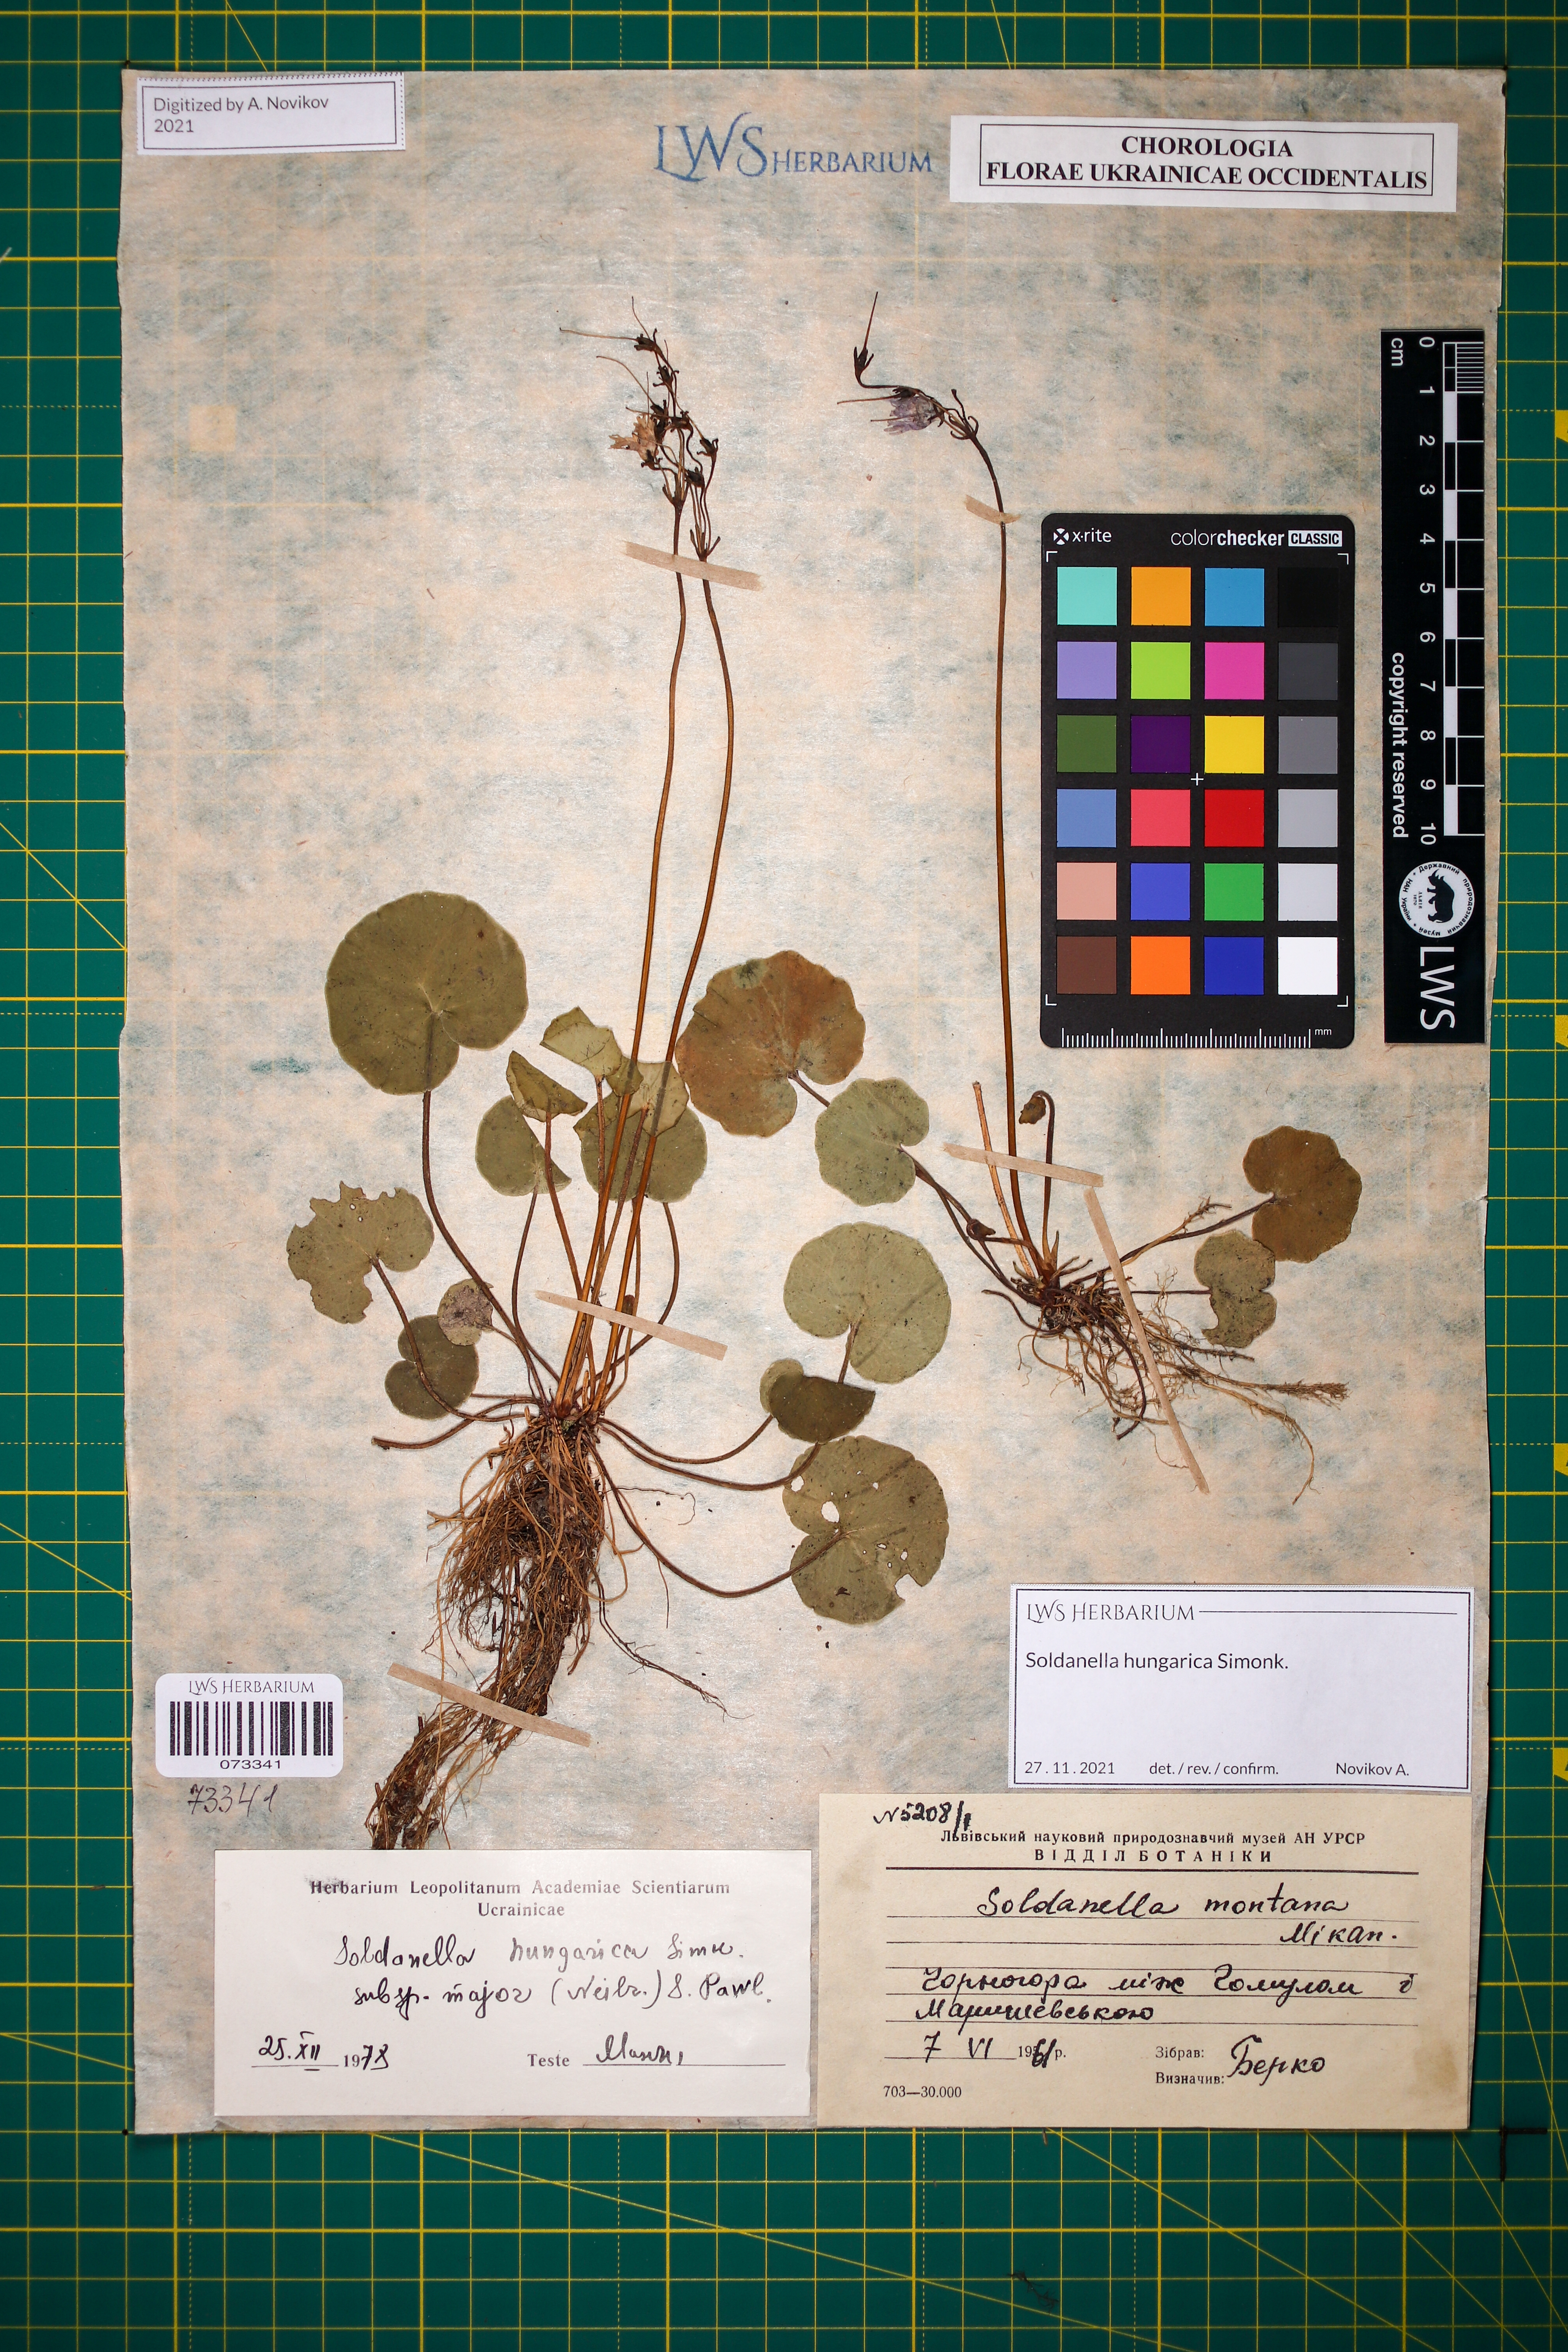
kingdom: Plantae
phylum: Tracheophyta
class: Magnoliopsida
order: Ericales
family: Primulaceae
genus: Soldanella
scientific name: Soldanella hungarica
